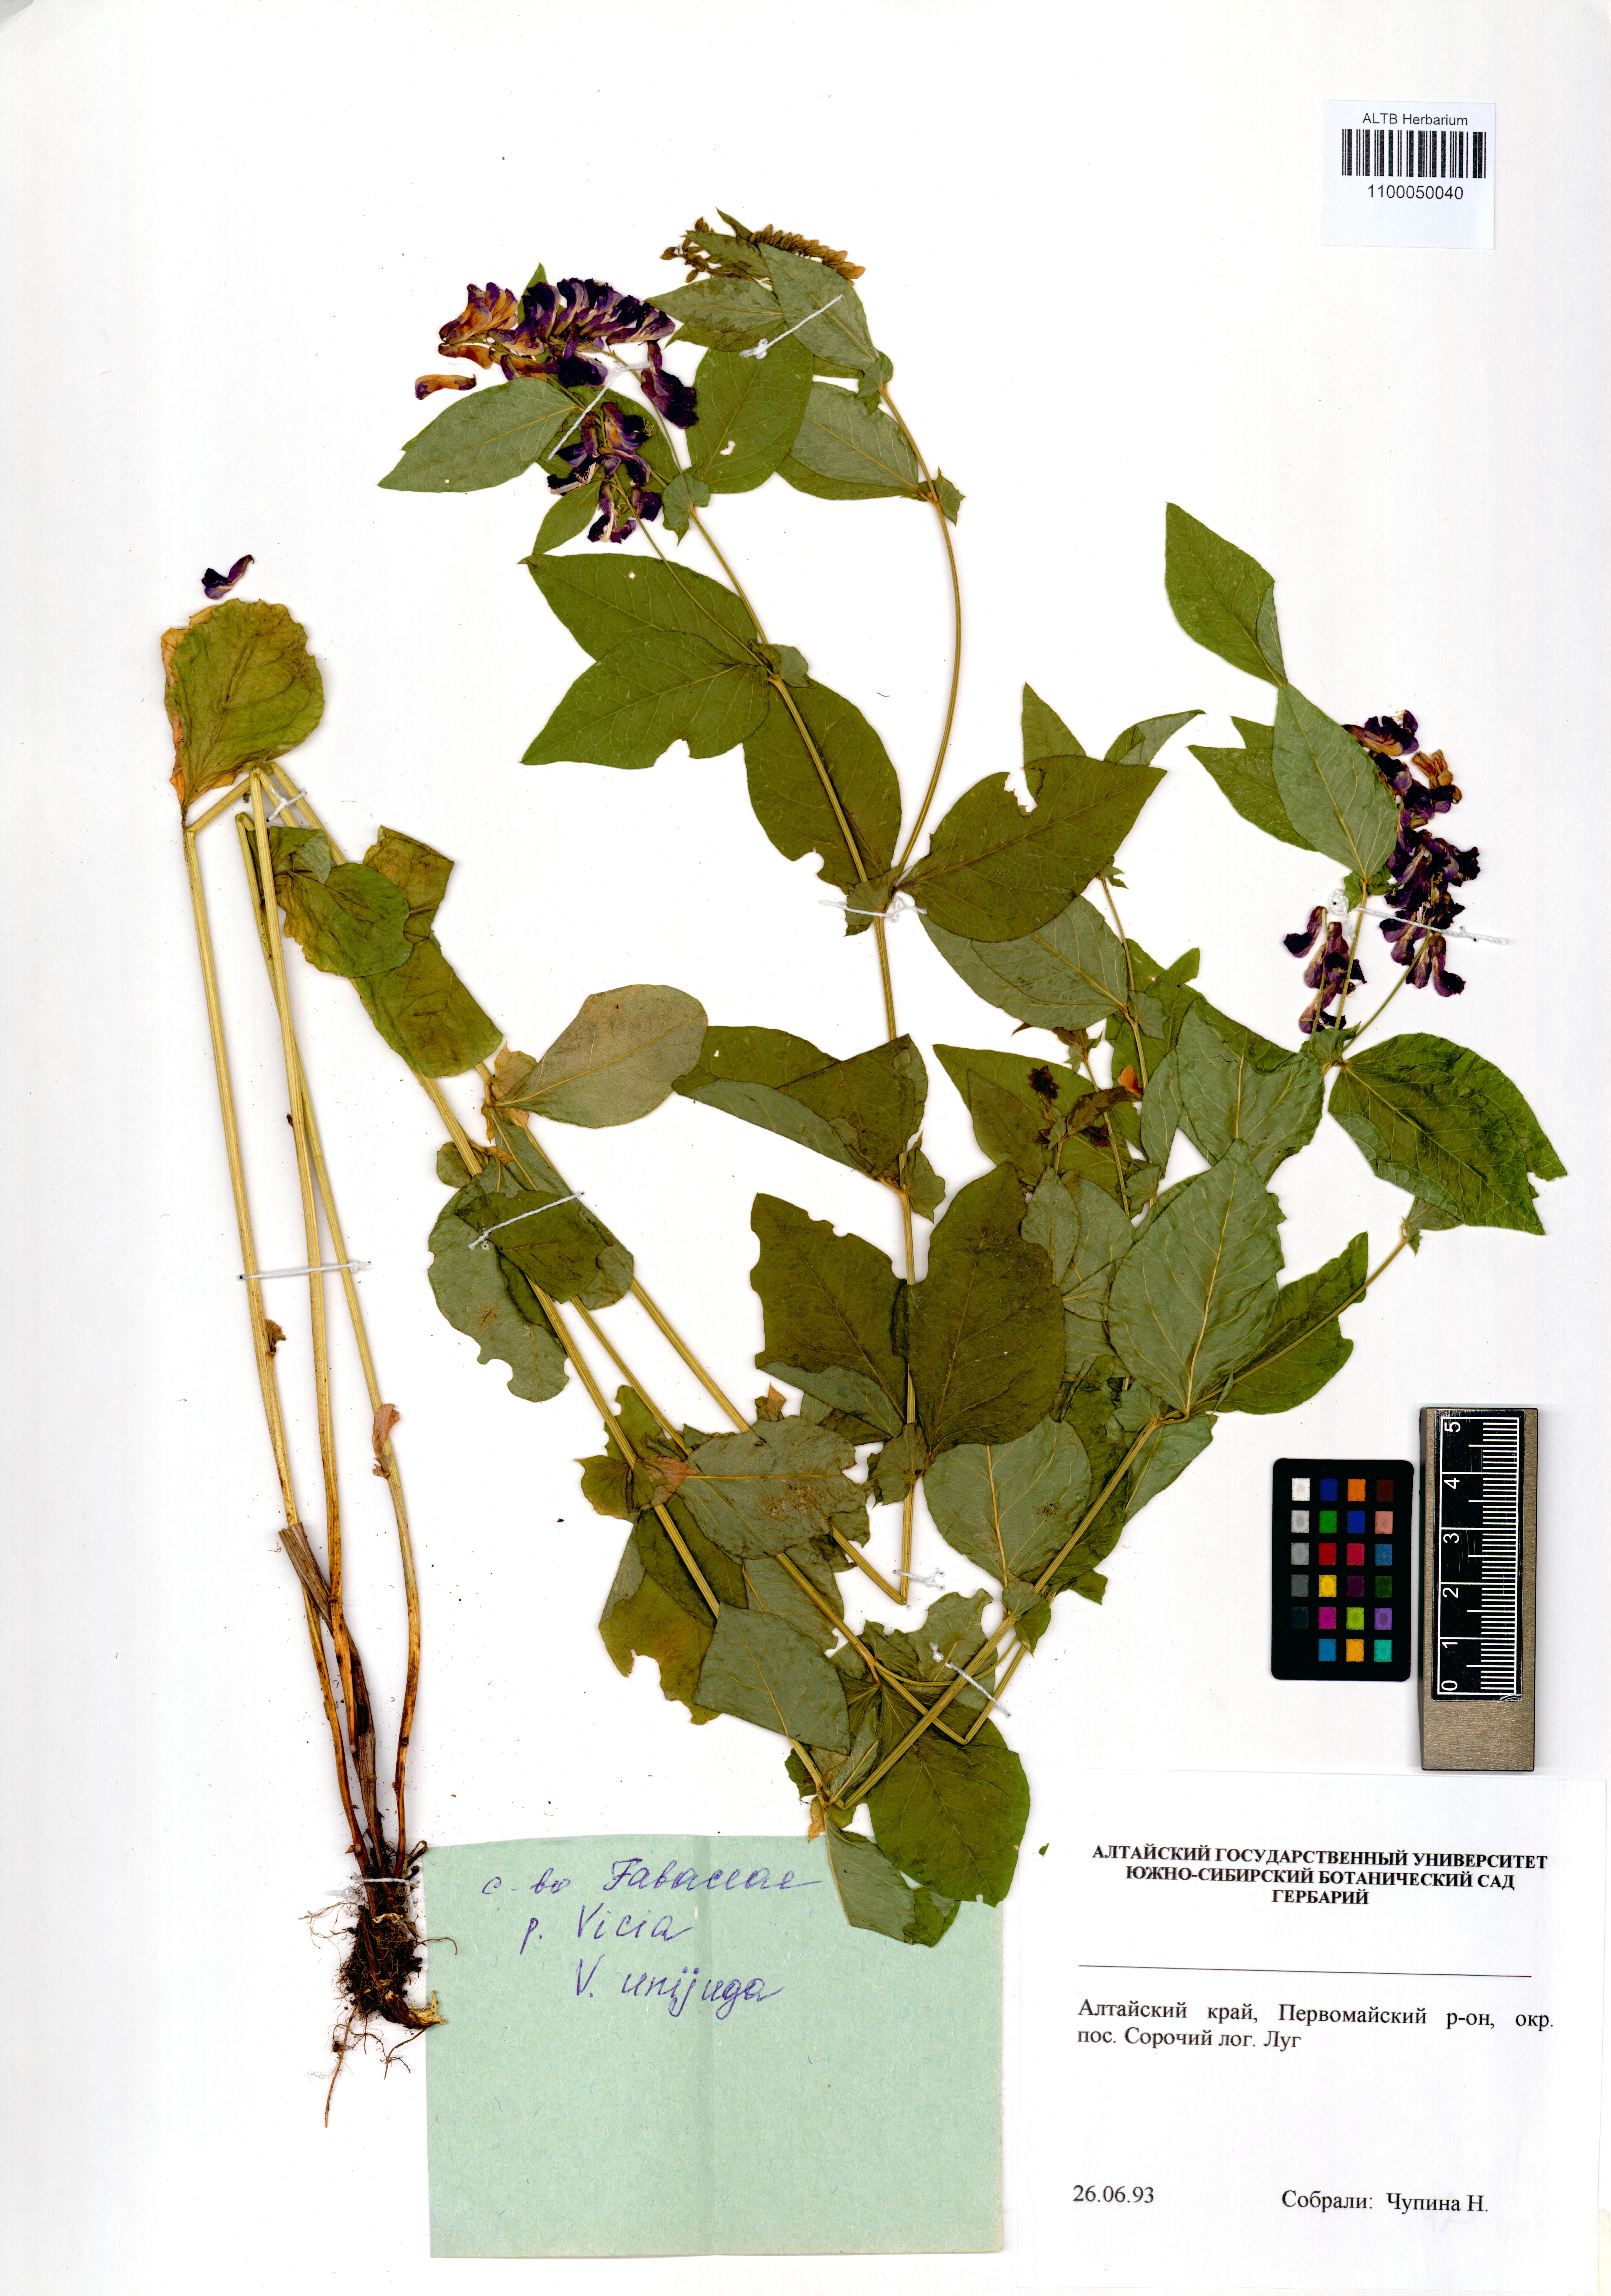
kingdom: Plantae
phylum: Tracheophyta
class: Magnoliopsida
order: Fabales
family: Fabaceae
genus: Vicia
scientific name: Vicia unijuga
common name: Two-leaf vetch
